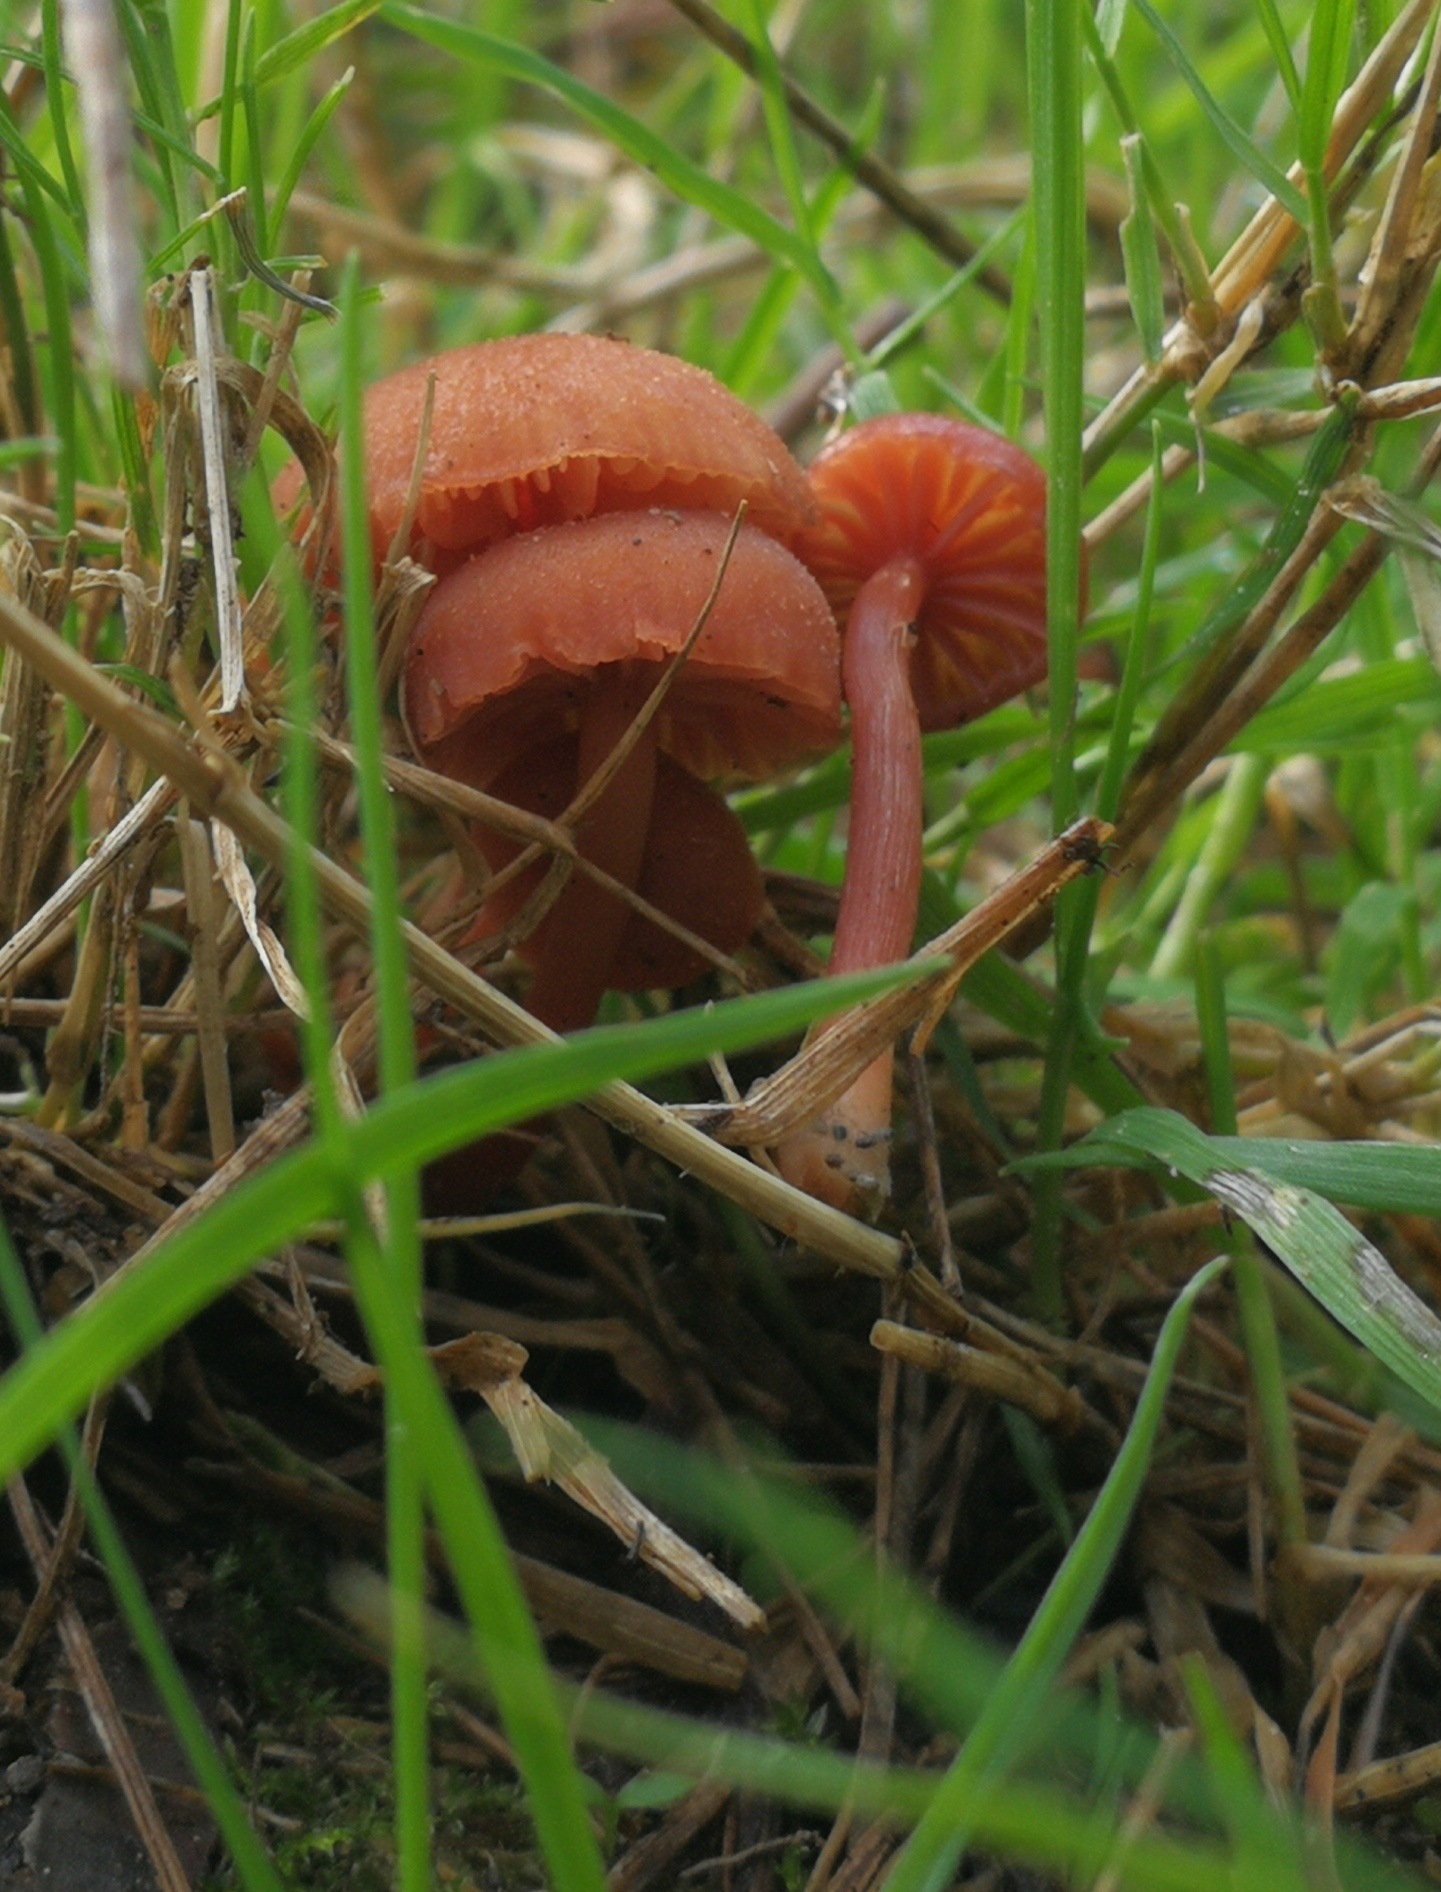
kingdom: Fungi
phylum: Basidiomycota
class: Agaricomycetes
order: Agaricales
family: Hydnangiaceae
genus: Laccaria
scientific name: Laccaria laccata
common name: rød ametysthat
